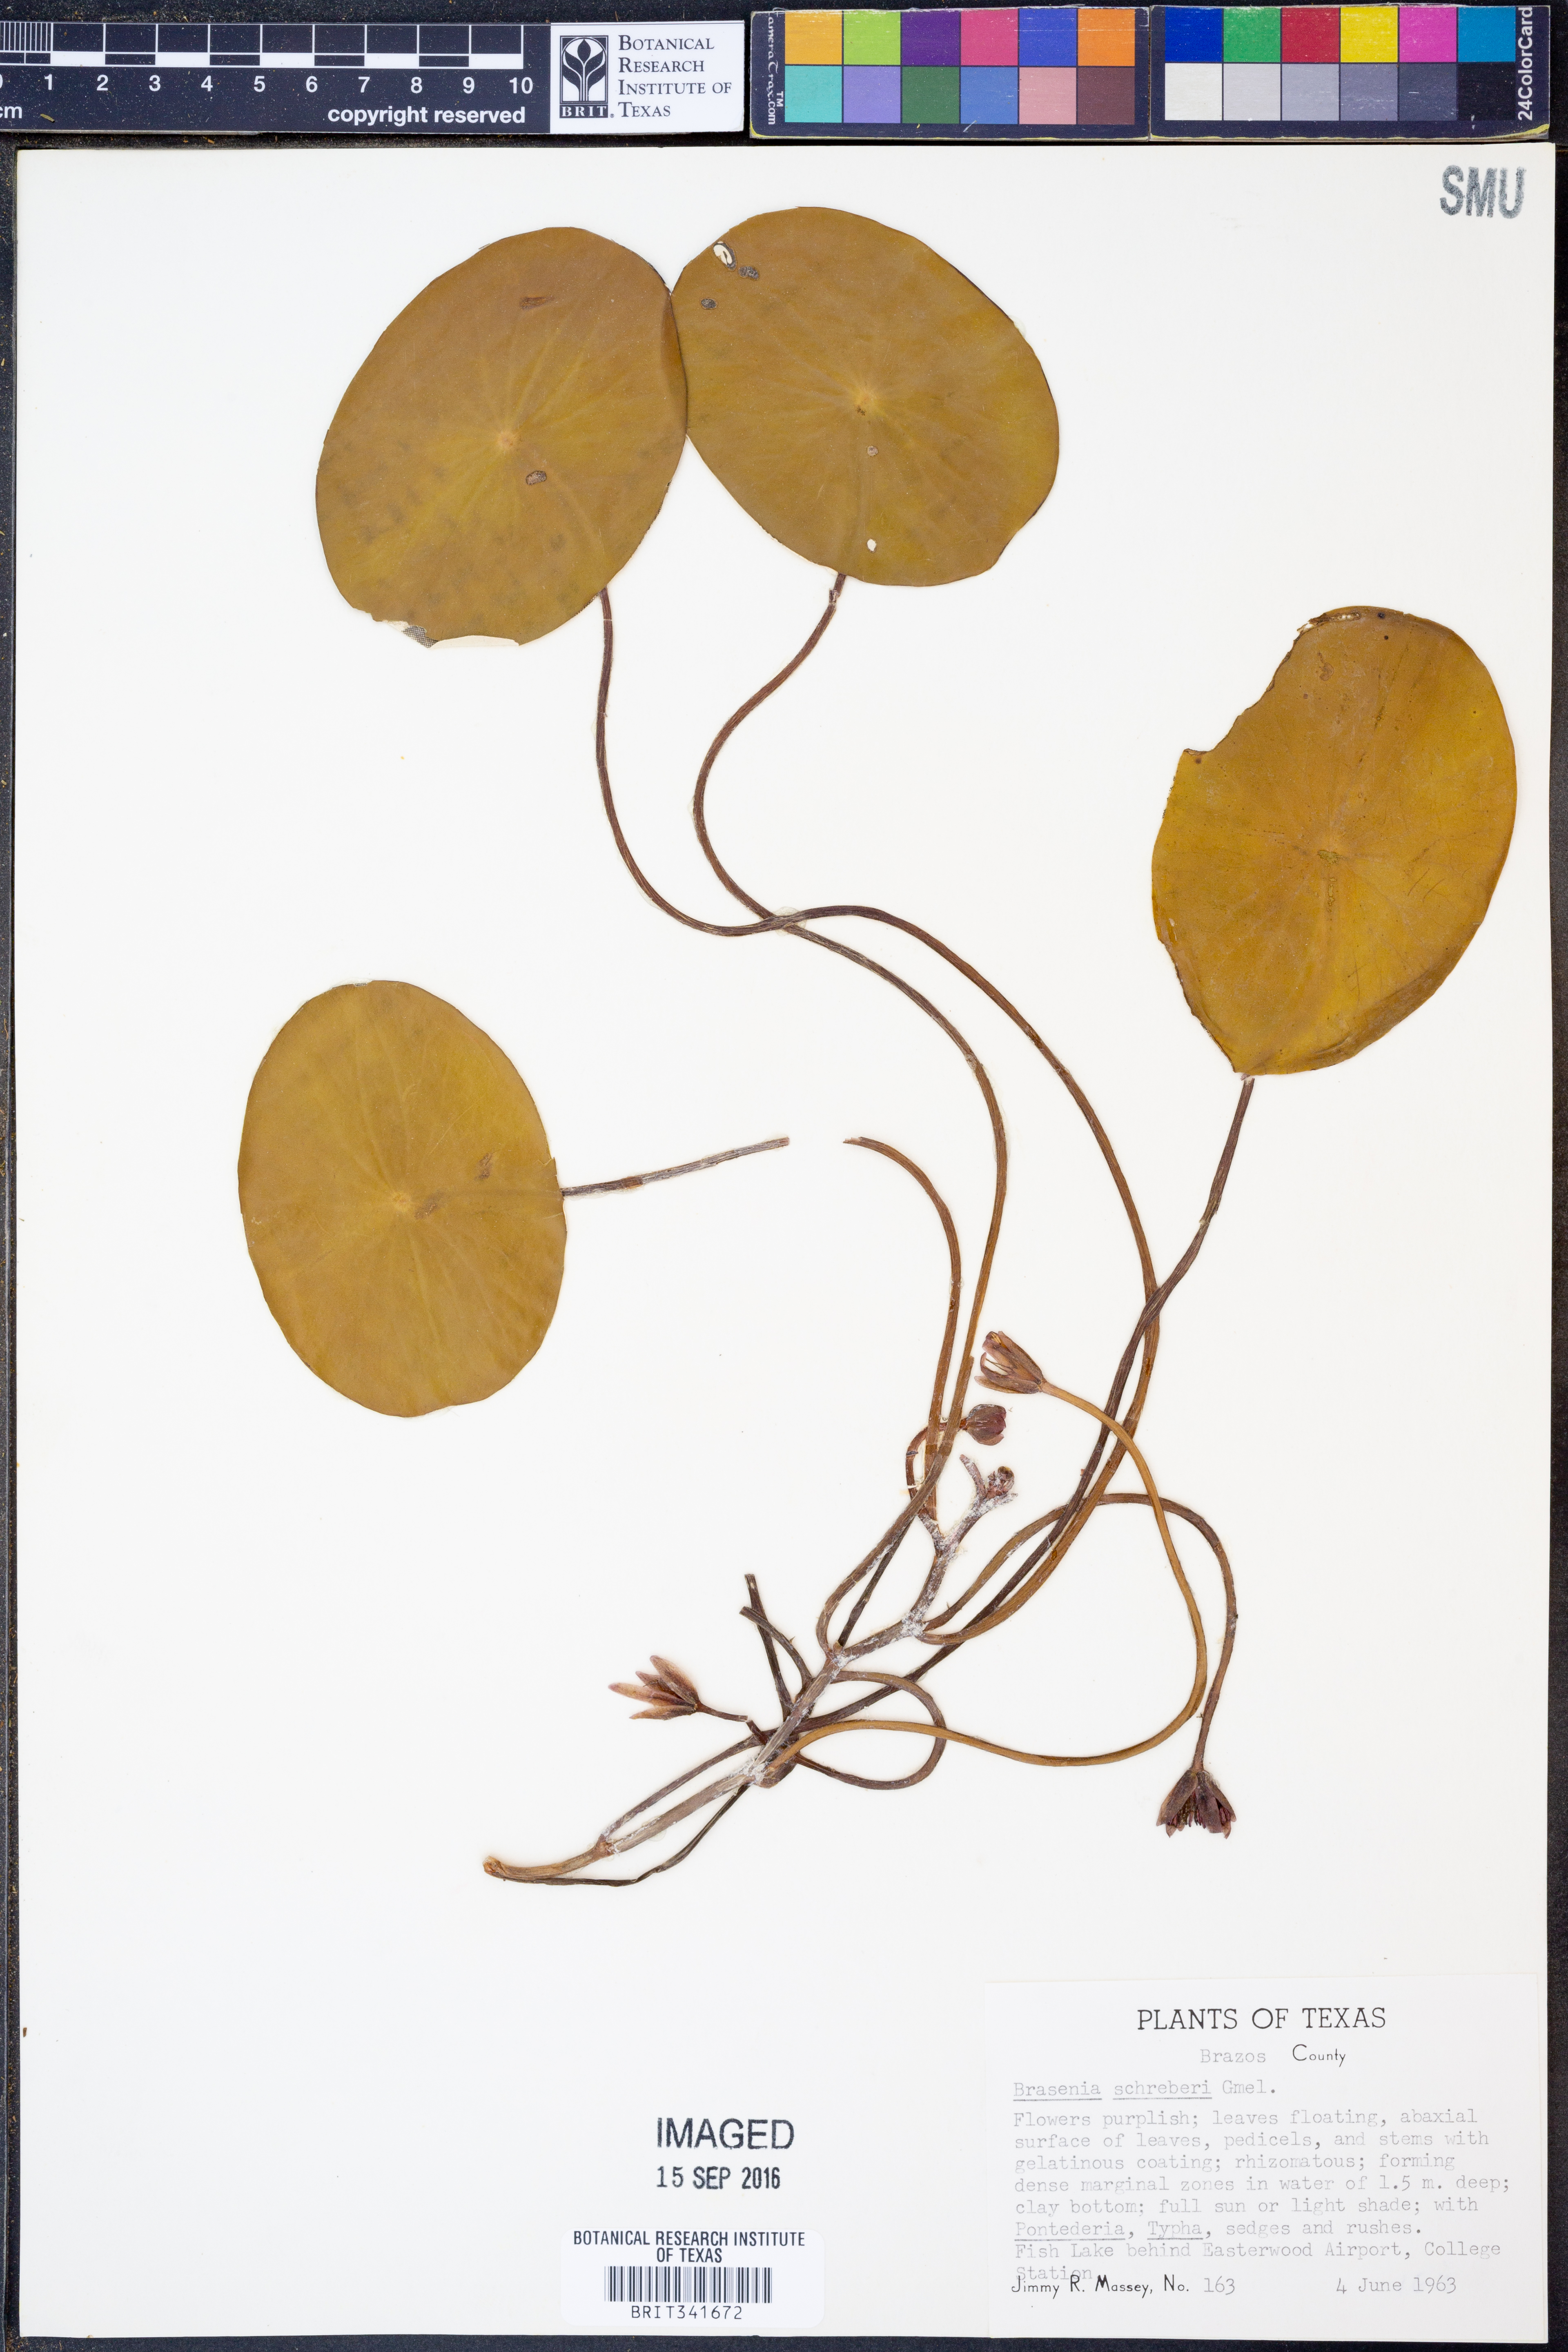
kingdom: Plantae
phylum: Tracheophyta
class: Magnoliopsida
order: Nymphaeales
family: Cabombaceae
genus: Brasenia
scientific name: Brasenia schreberi
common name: Water-shield
